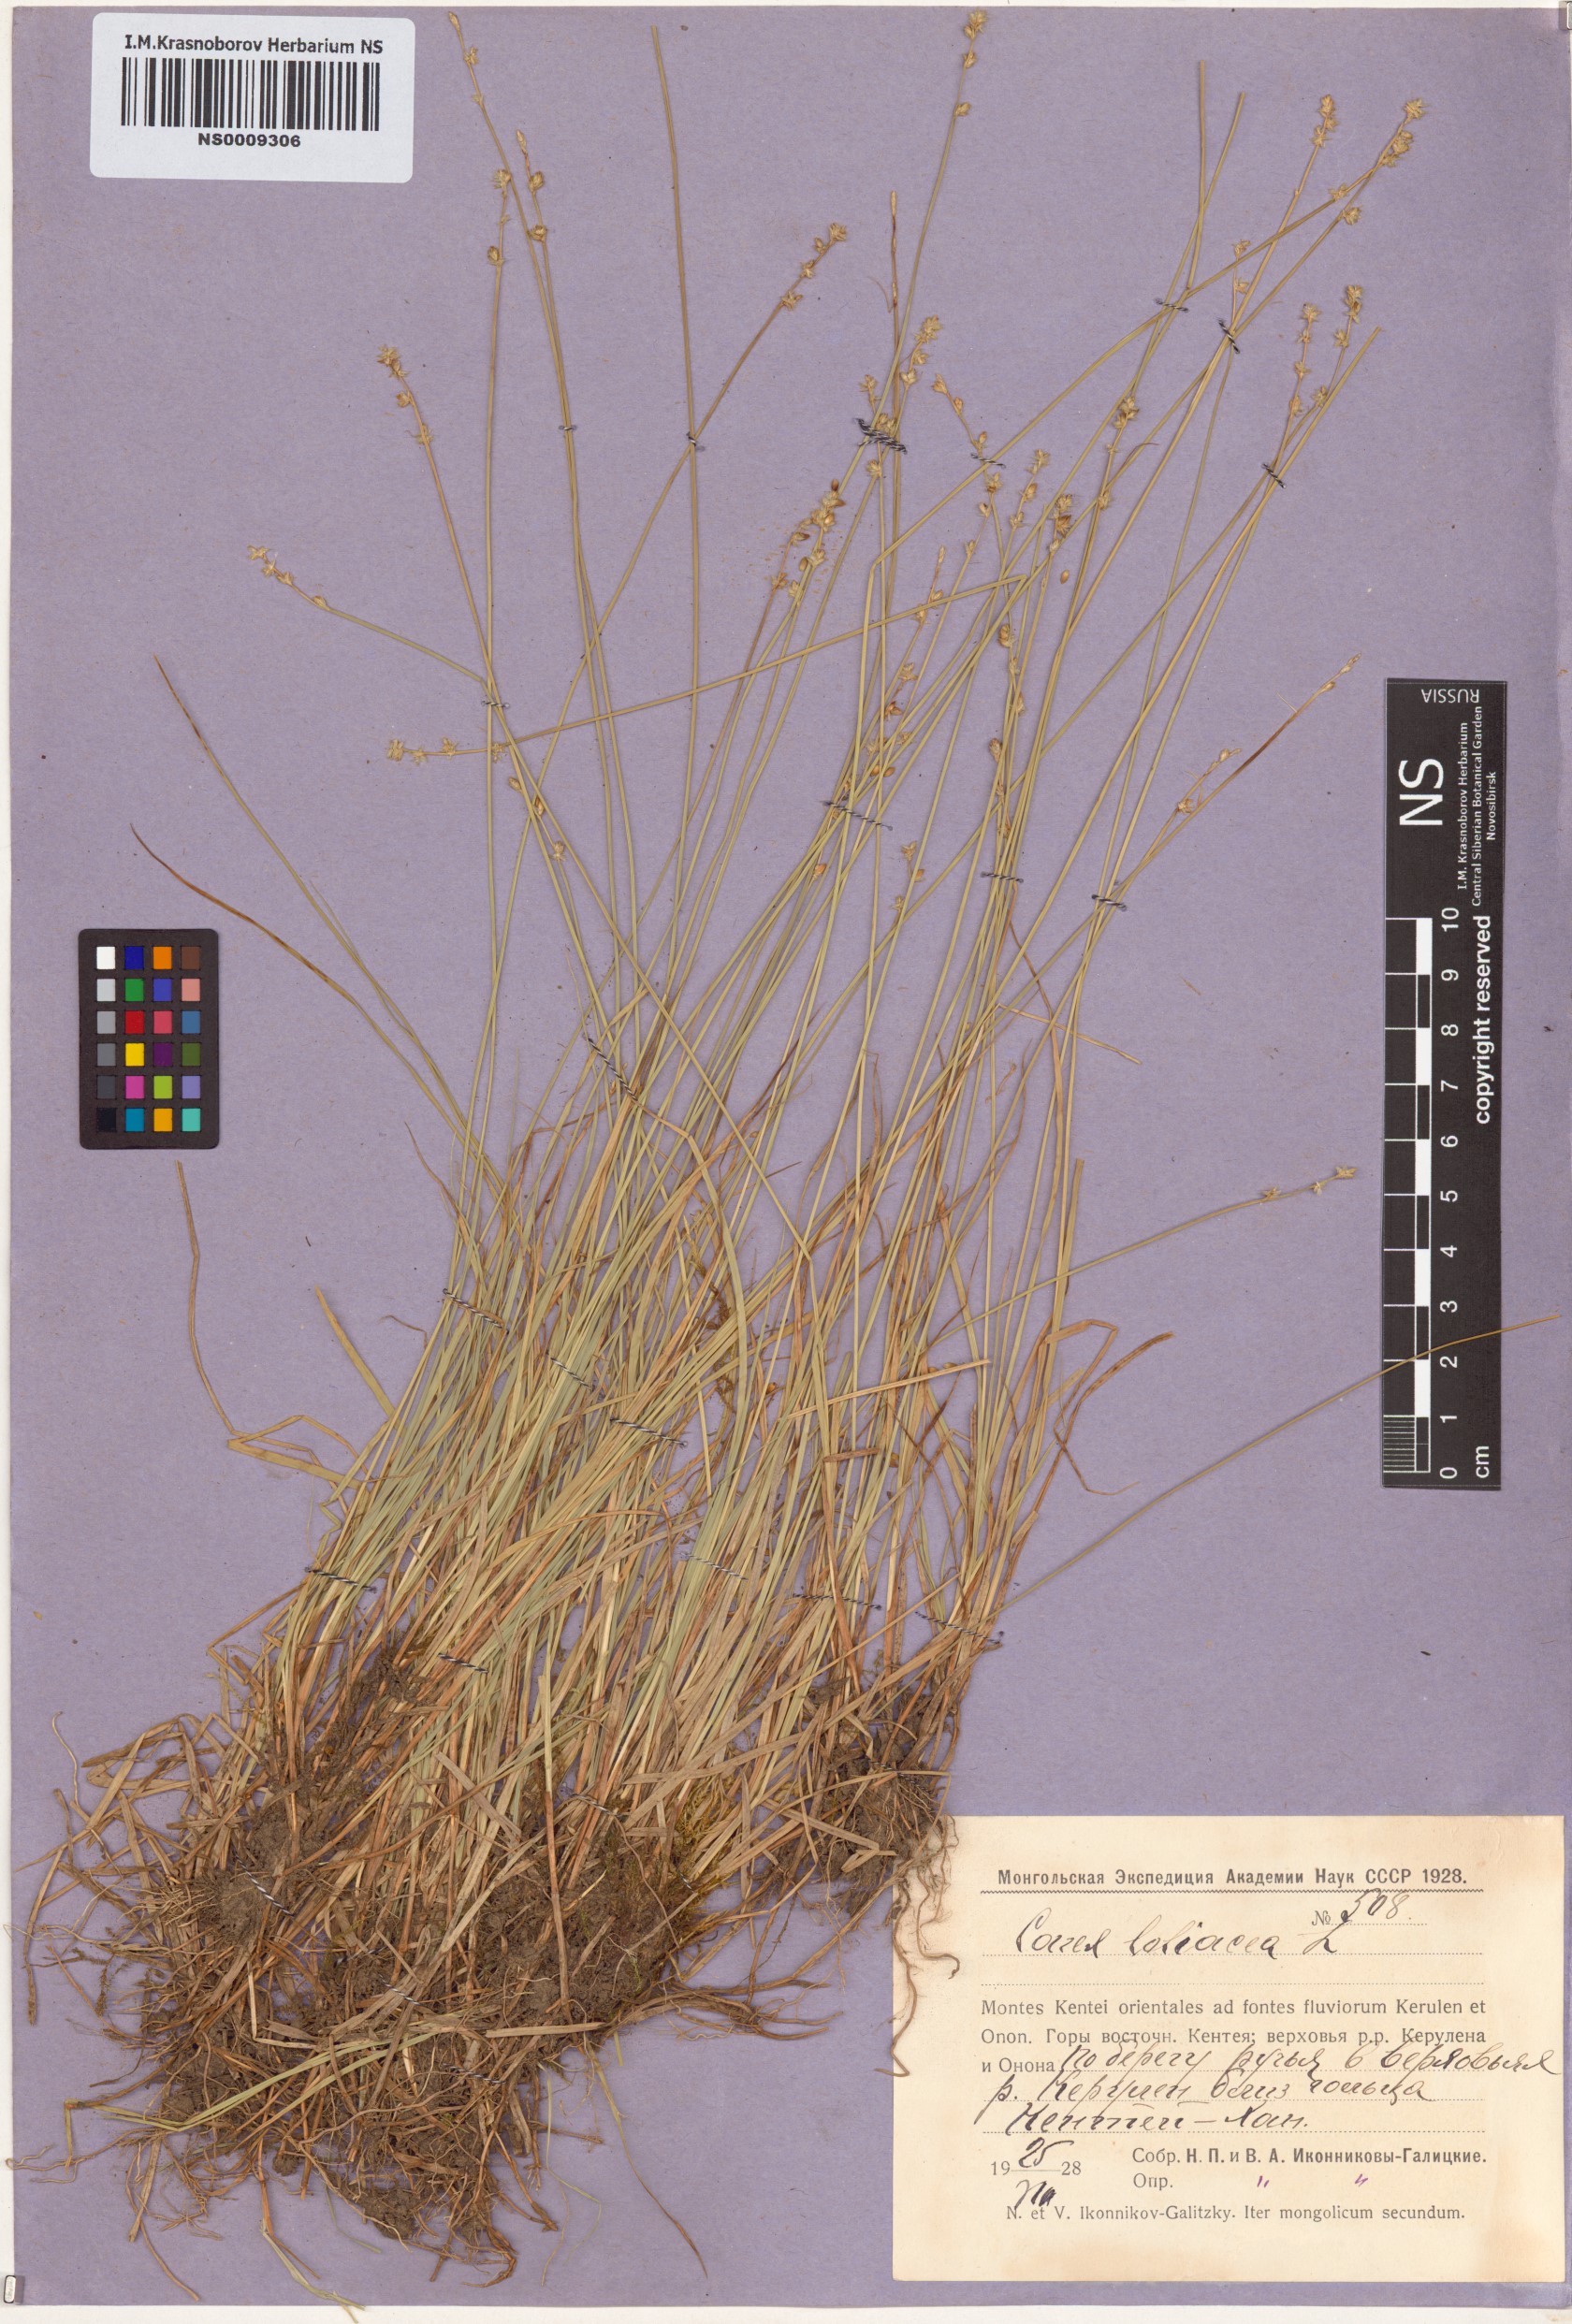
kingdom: Plantae
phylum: Tracheophyta
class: Liliopsida
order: Poales
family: Cyperaceae
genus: Carex
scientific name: Carex loliacea
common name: Ryegrass sedge
